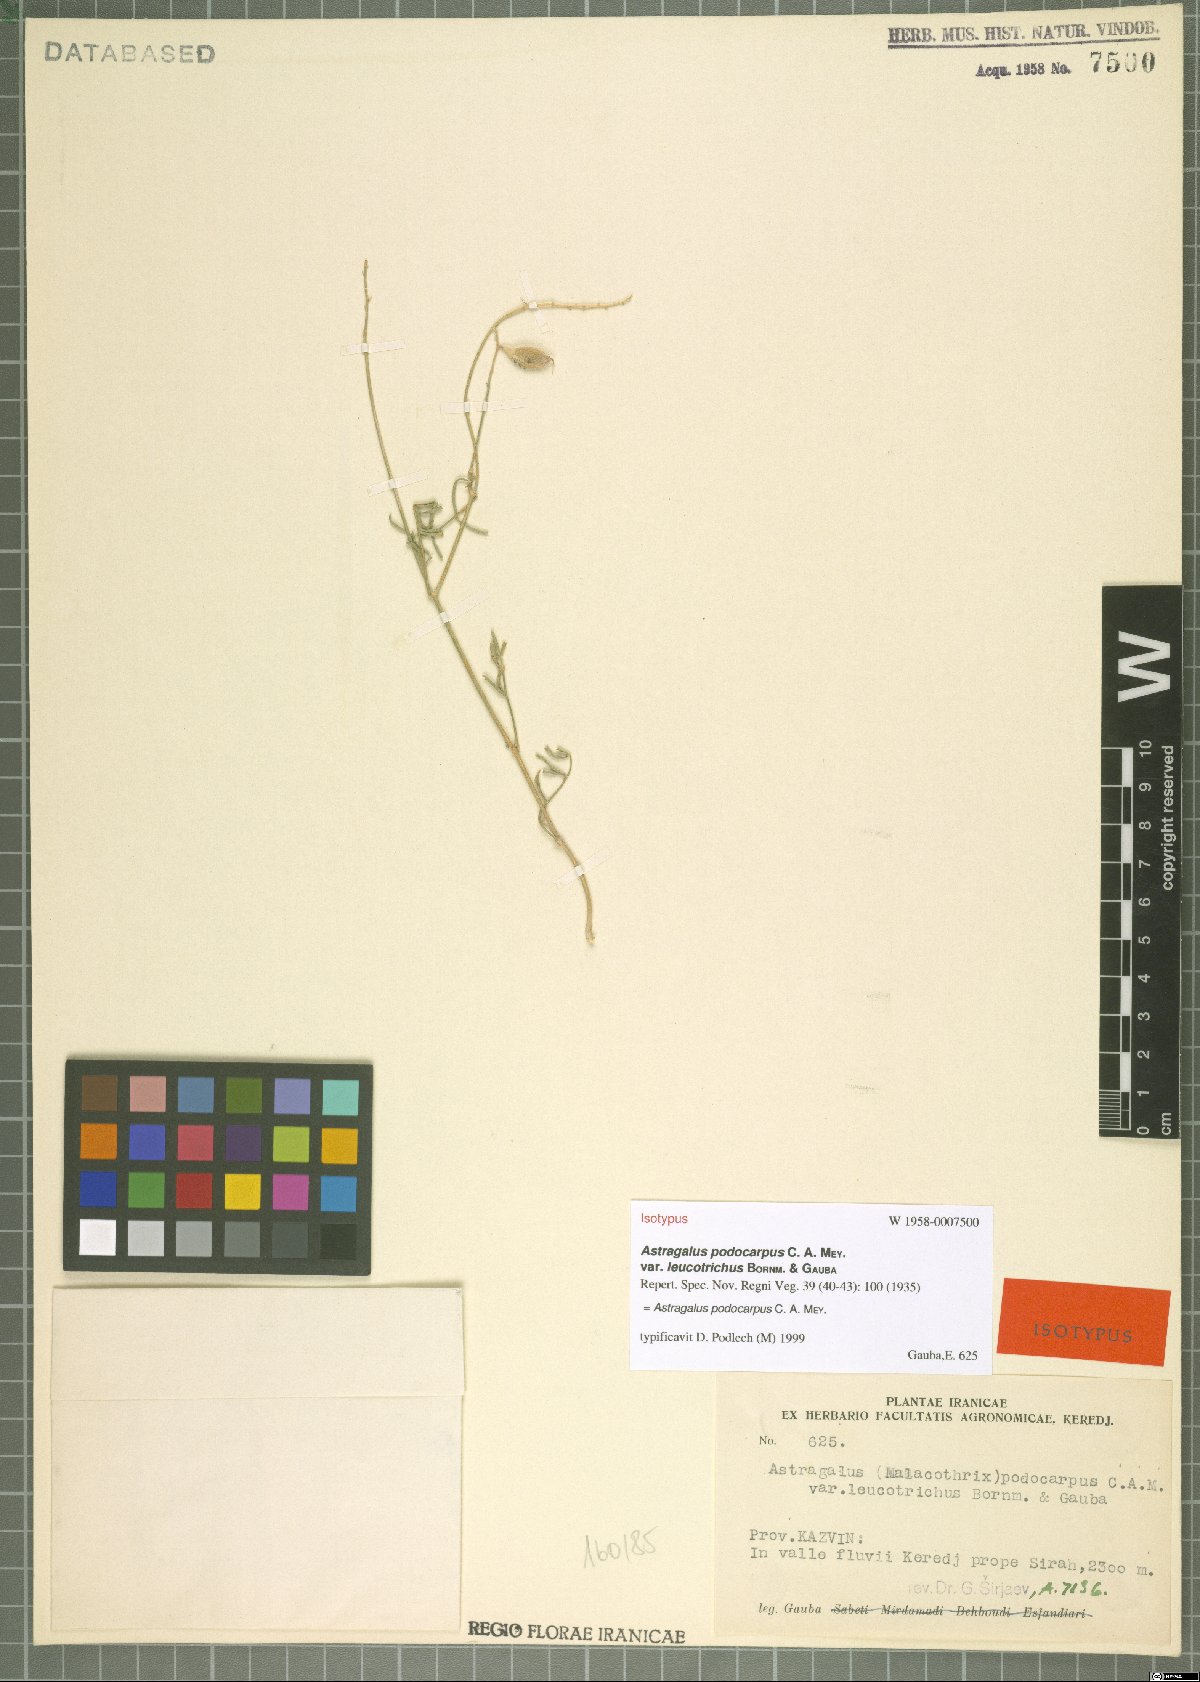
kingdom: Plantae
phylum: Tracheophyta
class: Magnoliopsida
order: Fabales
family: Fabaceae
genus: Astragalus
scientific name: Astragalus podocarpus
